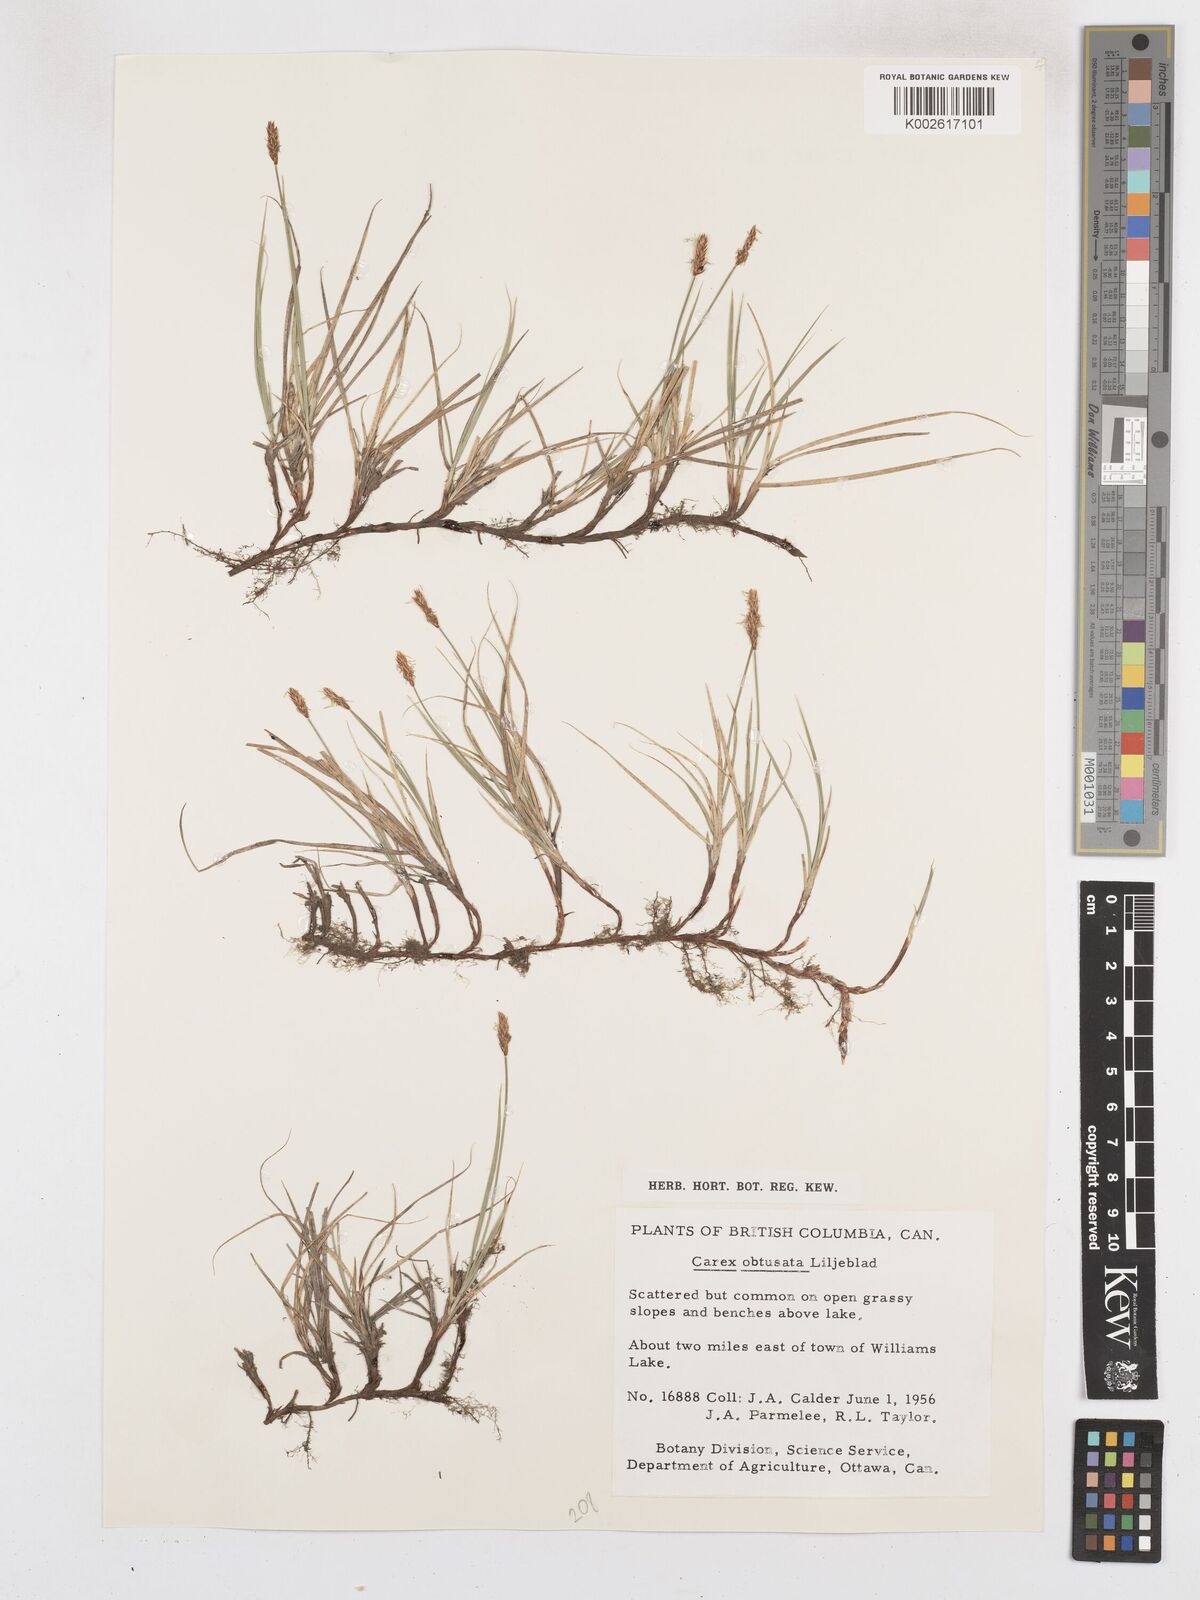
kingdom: Plantae
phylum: Tracheophyta
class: Liliopsida
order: Poales
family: Cyperaceae
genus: Carex
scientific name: Carex obtusata
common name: Blunt sedge
